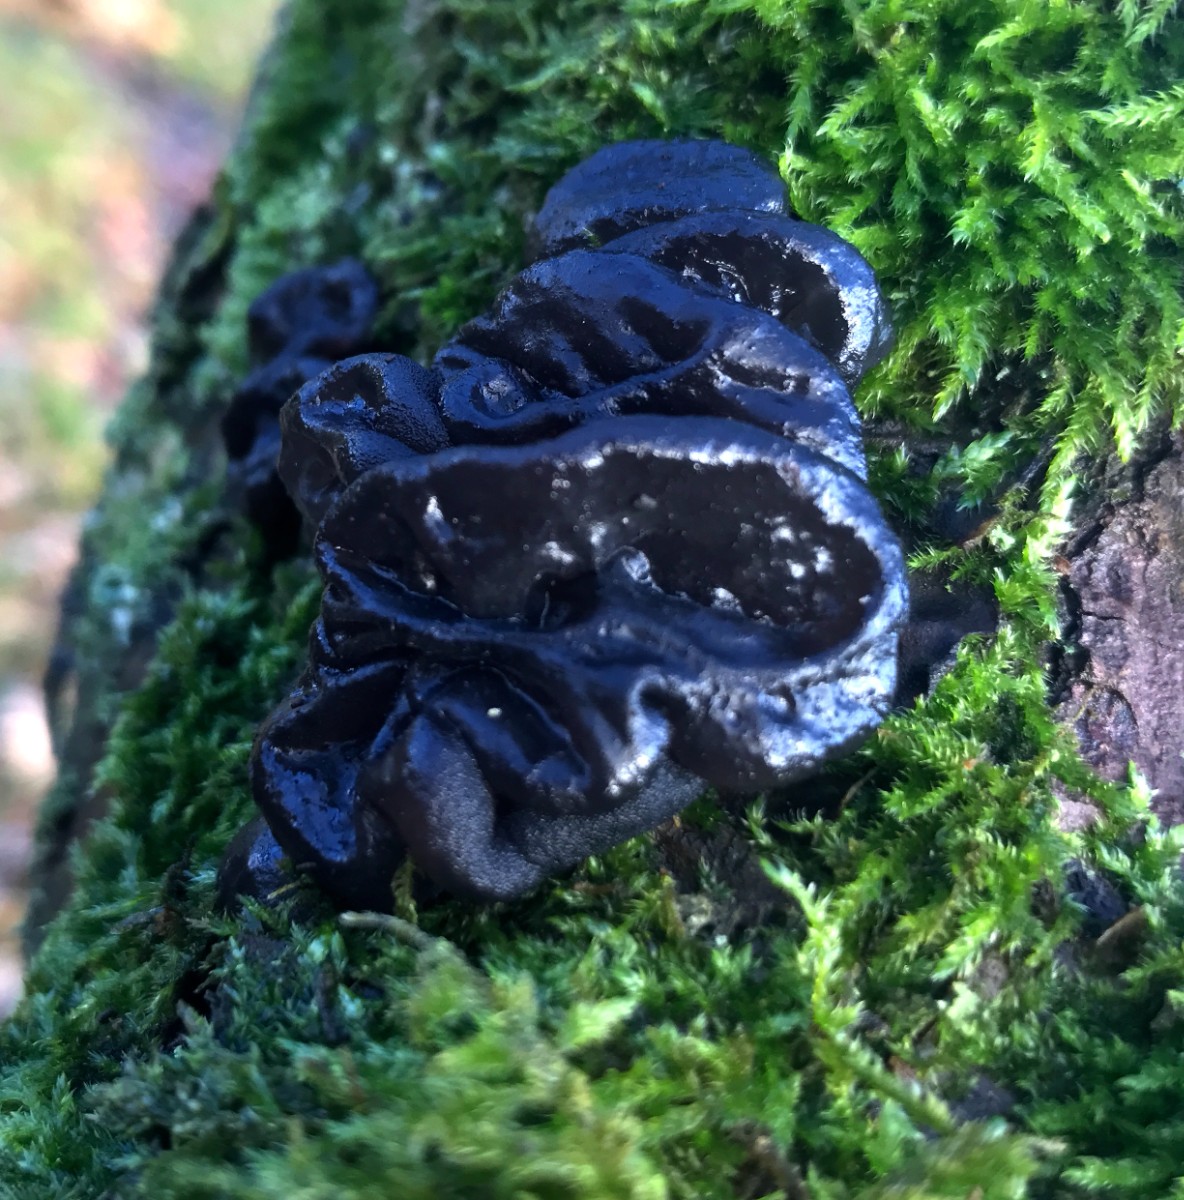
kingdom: Fungi
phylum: Basidiomycota
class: Agaricomycetes
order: Auriculariales
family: Auriculariaceae
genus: Exidia
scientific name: Exidia glandulosa
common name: ege-bævretop
